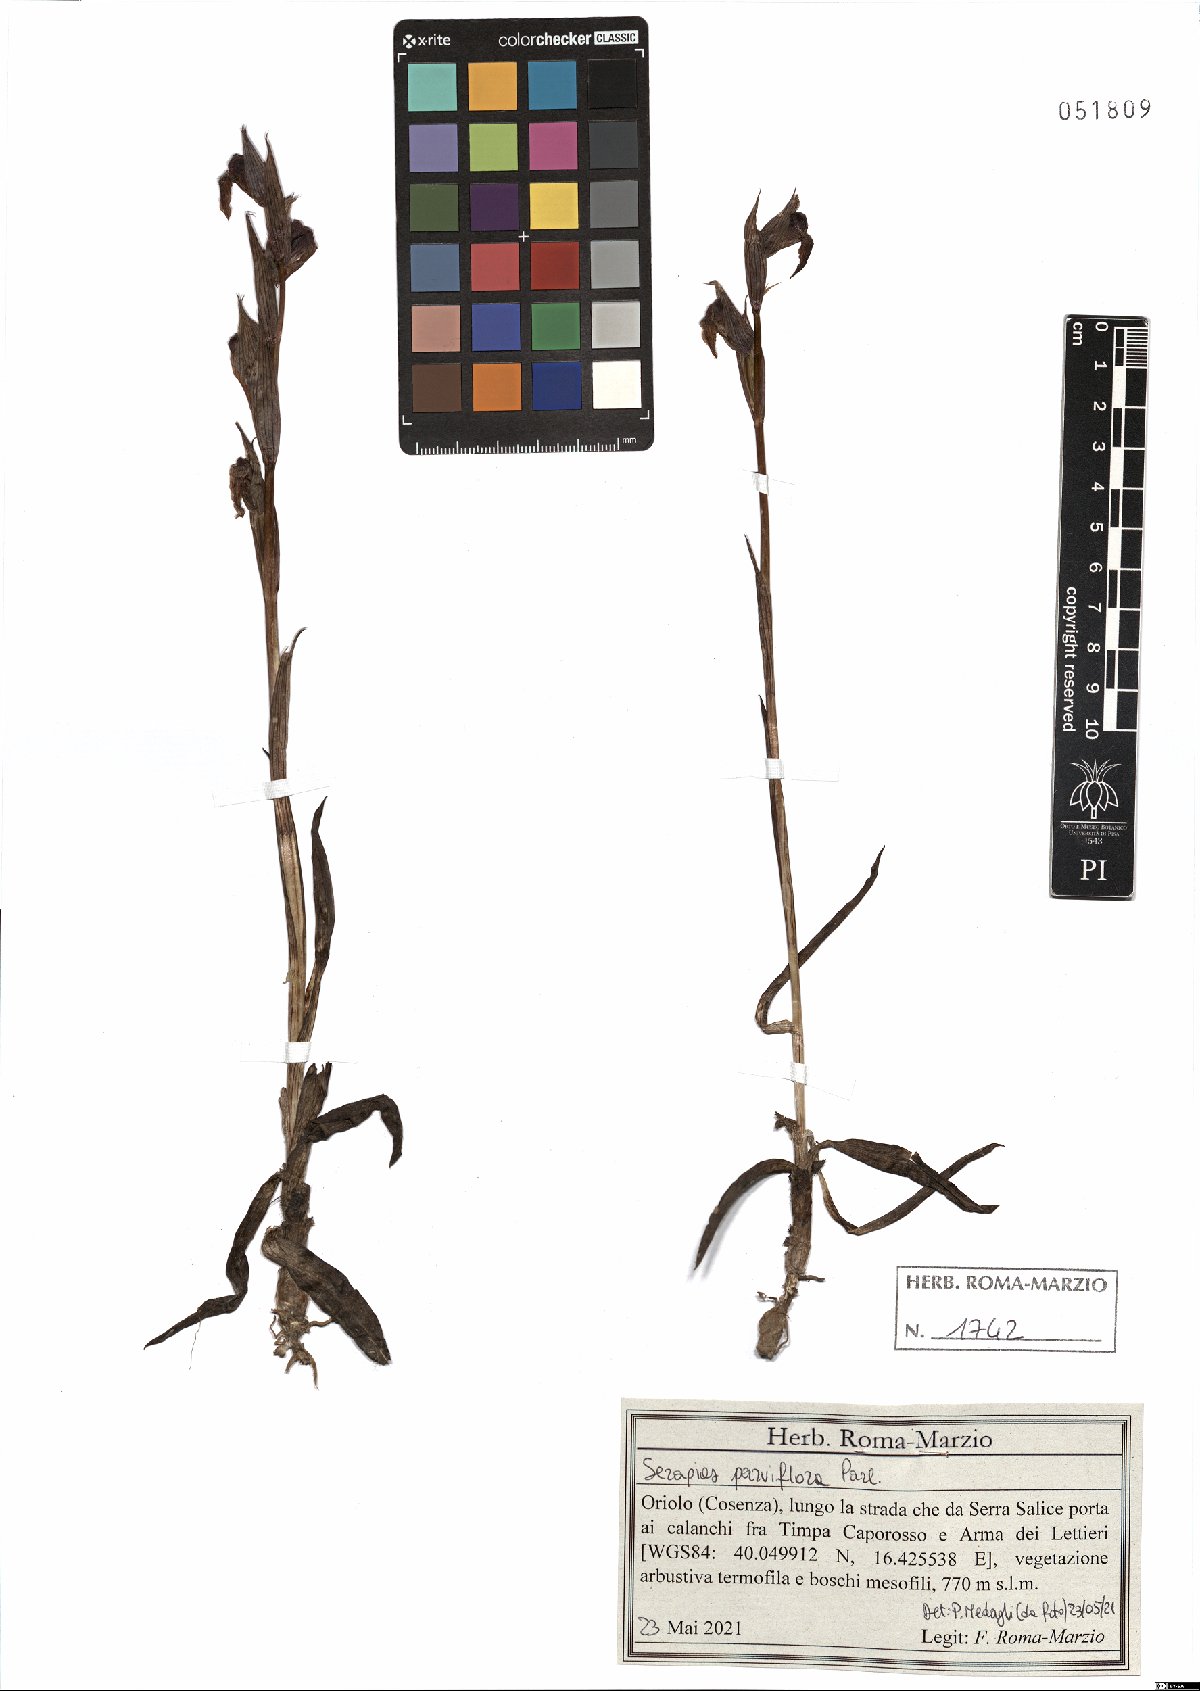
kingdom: Plantae
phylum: Tracheophyta
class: Liliopsida
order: Asparagales
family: Orchidaceae
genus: Serapias
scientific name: Serapias parviflora
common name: Small-flowered tongue-orchid
